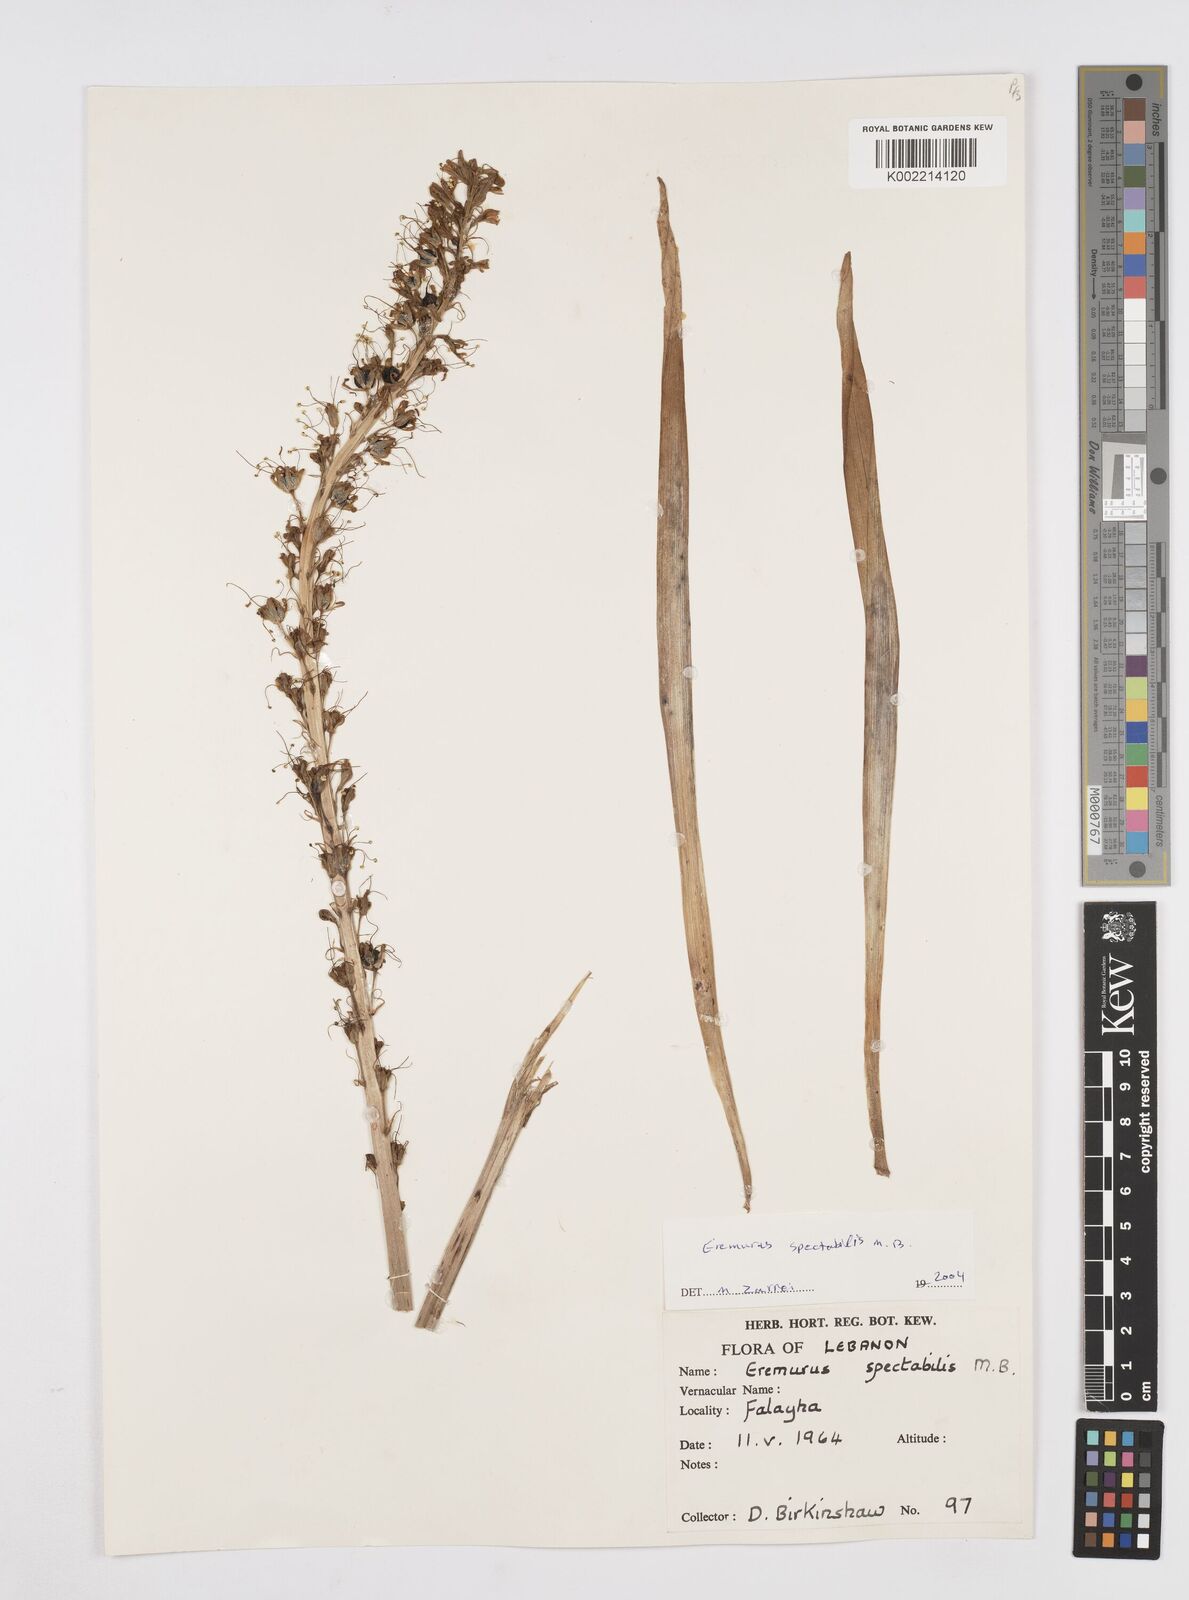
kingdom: Plantae
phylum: Tracheophyta
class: Liliopsida
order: Asparagales
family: Asphodelaceae
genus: Eremurus
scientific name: Eremurus spectabilis
